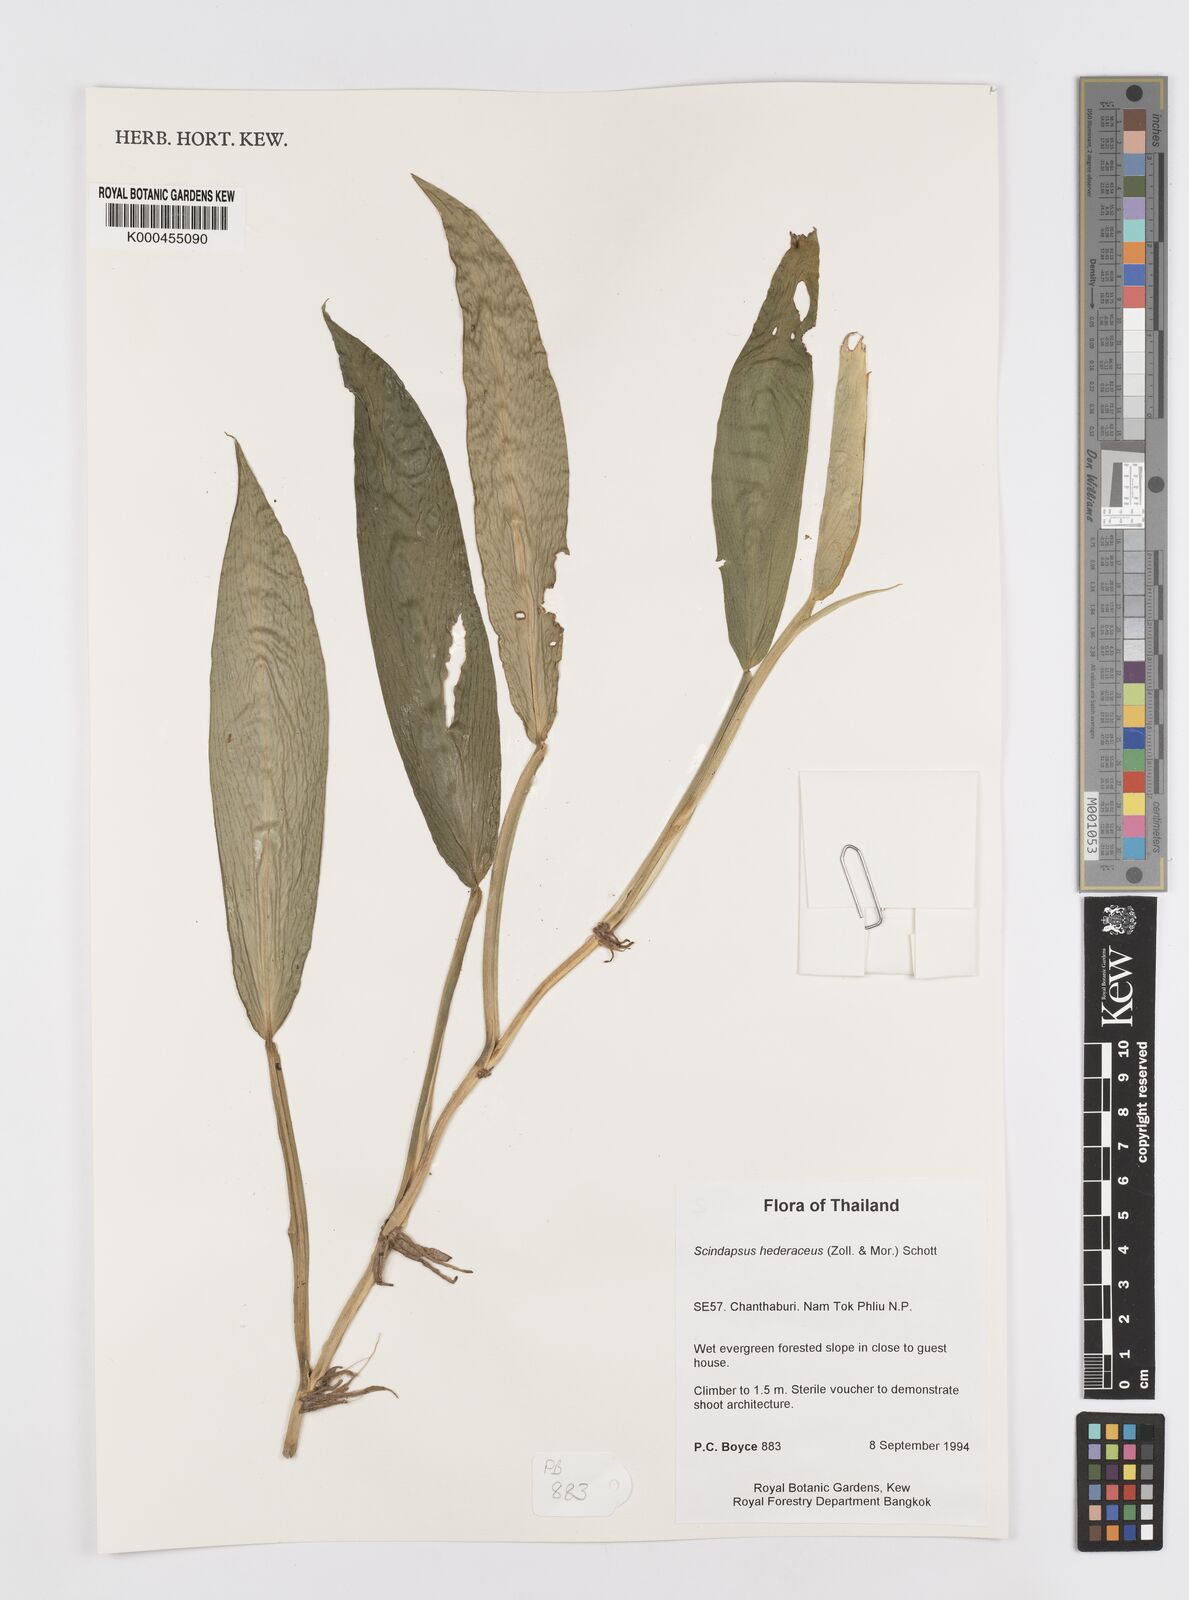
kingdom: Plantae
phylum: Tracheophyta
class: Liliopsida
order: Alismatales
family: Araceae
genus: Scindapsus
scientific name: Scindapsus hederaceus
